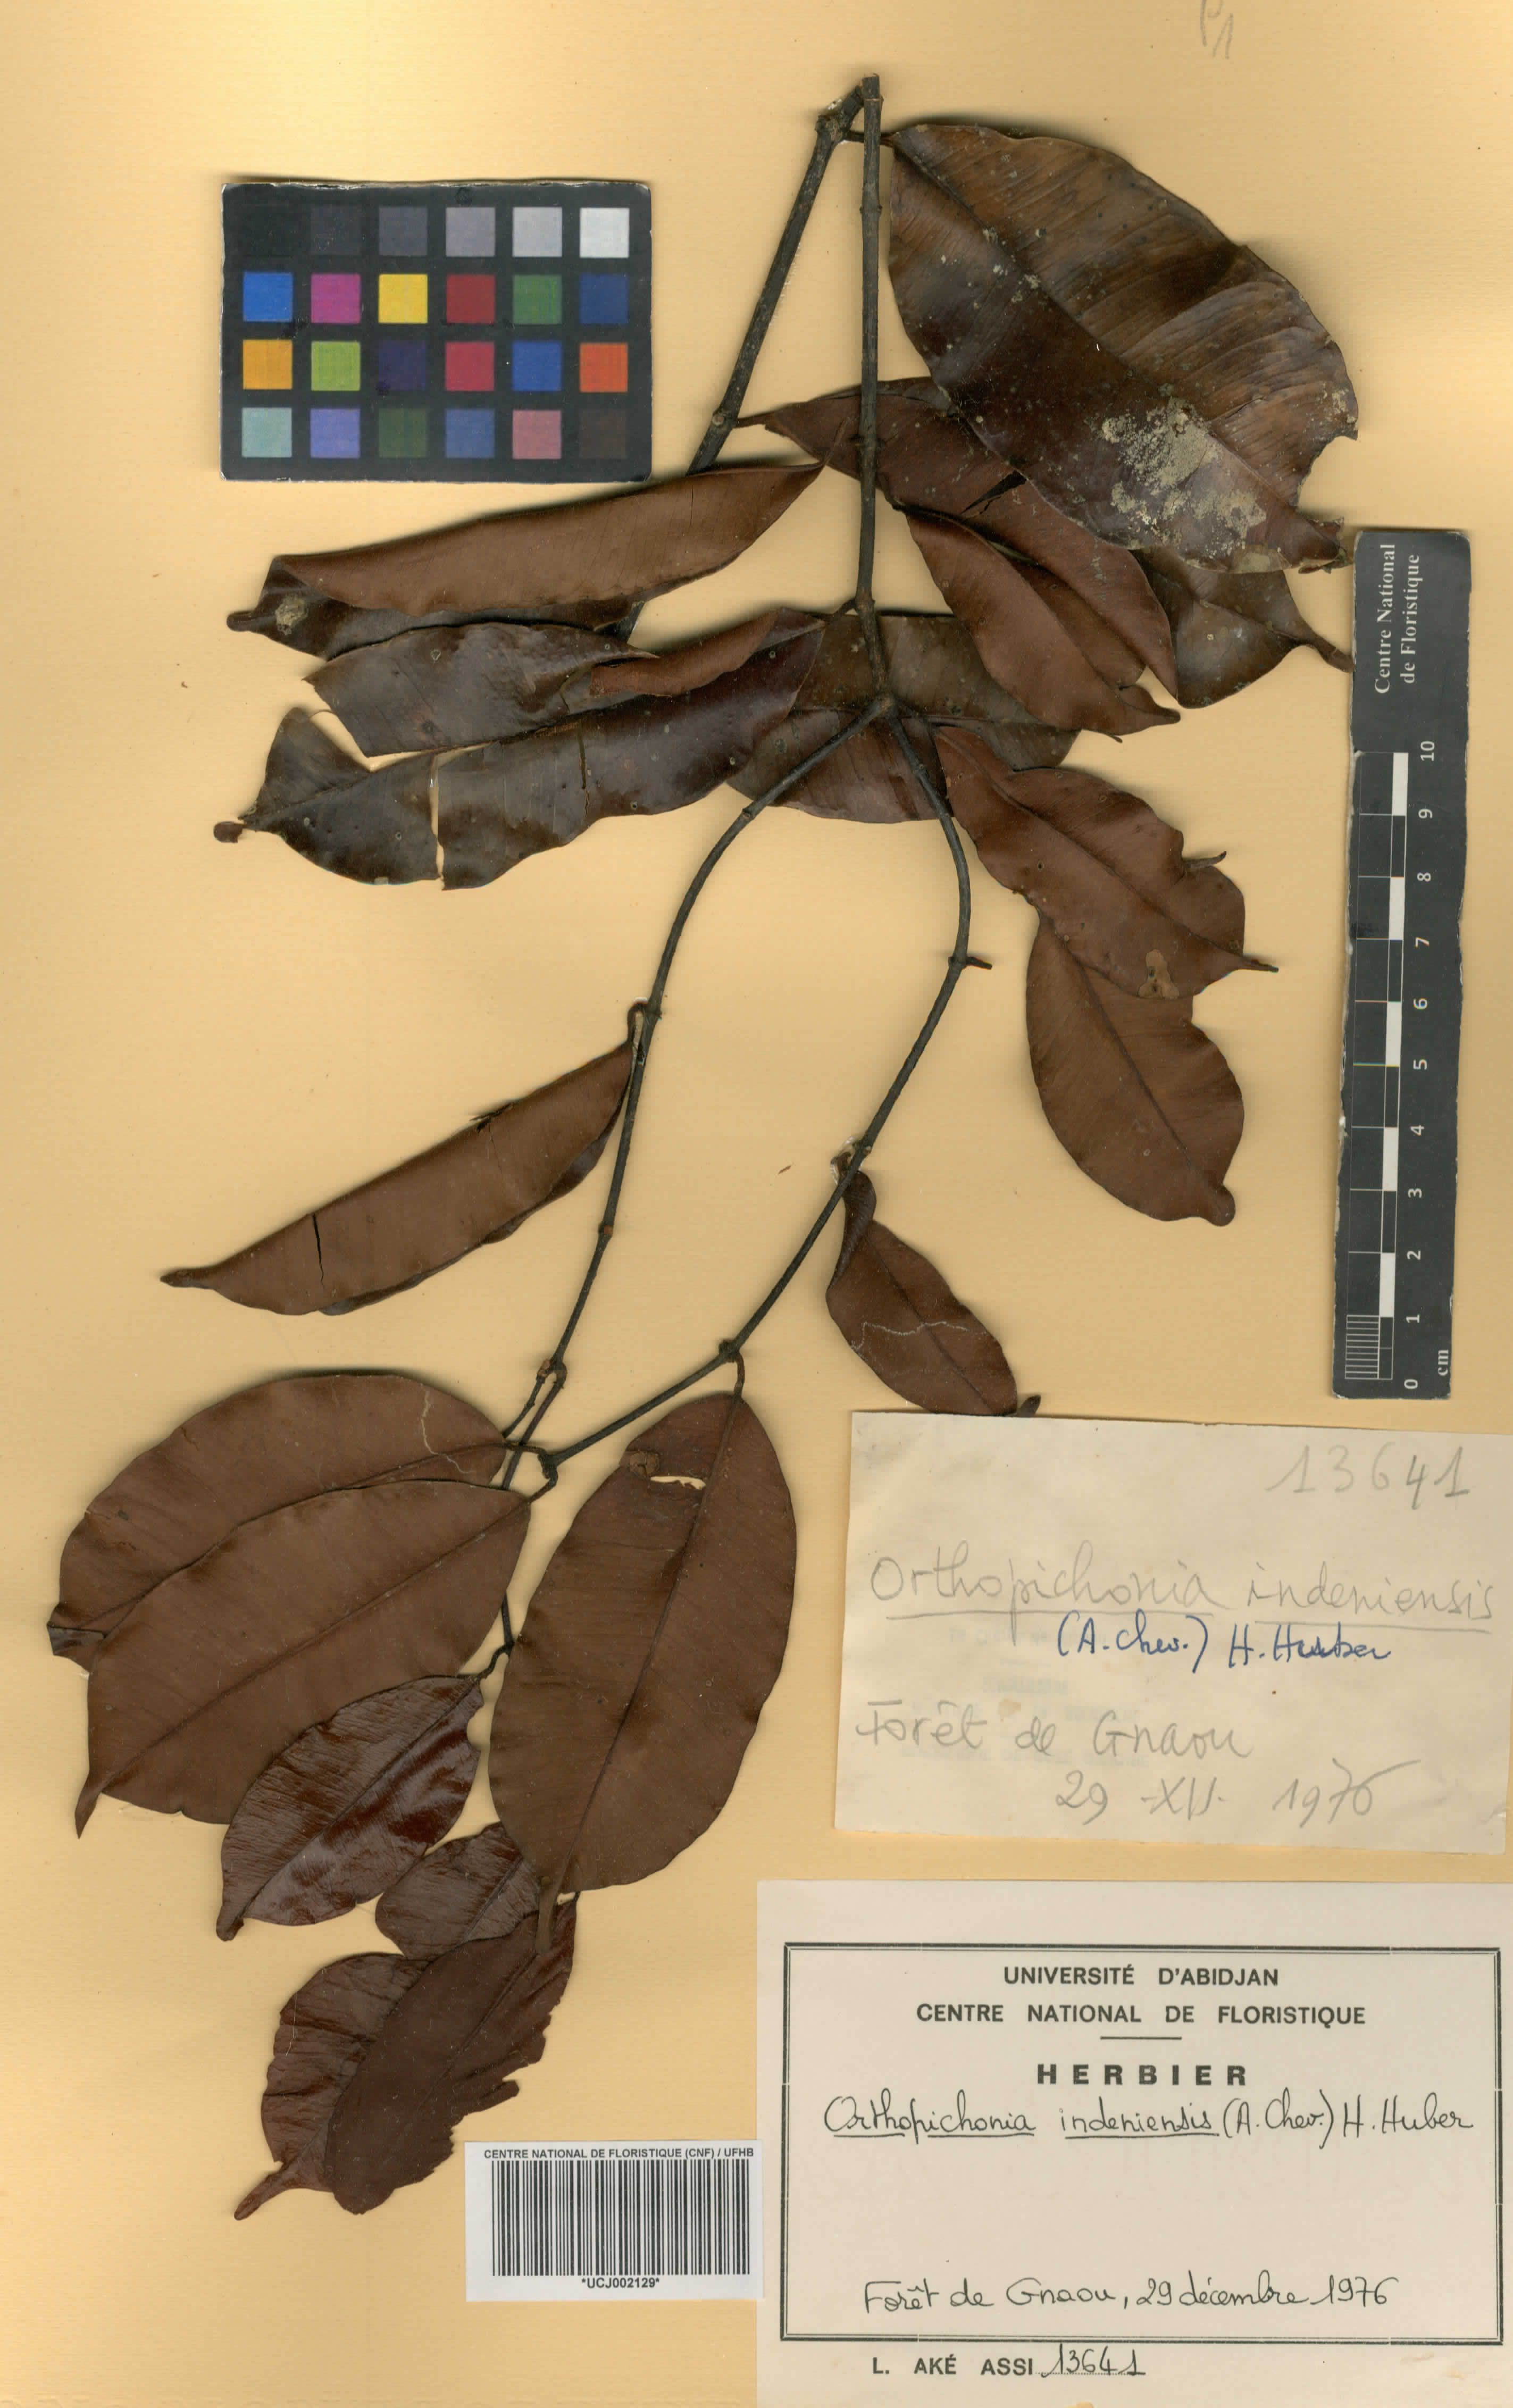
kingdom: Plantae
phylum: Tracheophyta
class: Magnoliopsida
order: Gentianales
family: Apocynaceae
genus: Orthopichonia
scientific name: Orthopichonia indeniensis
